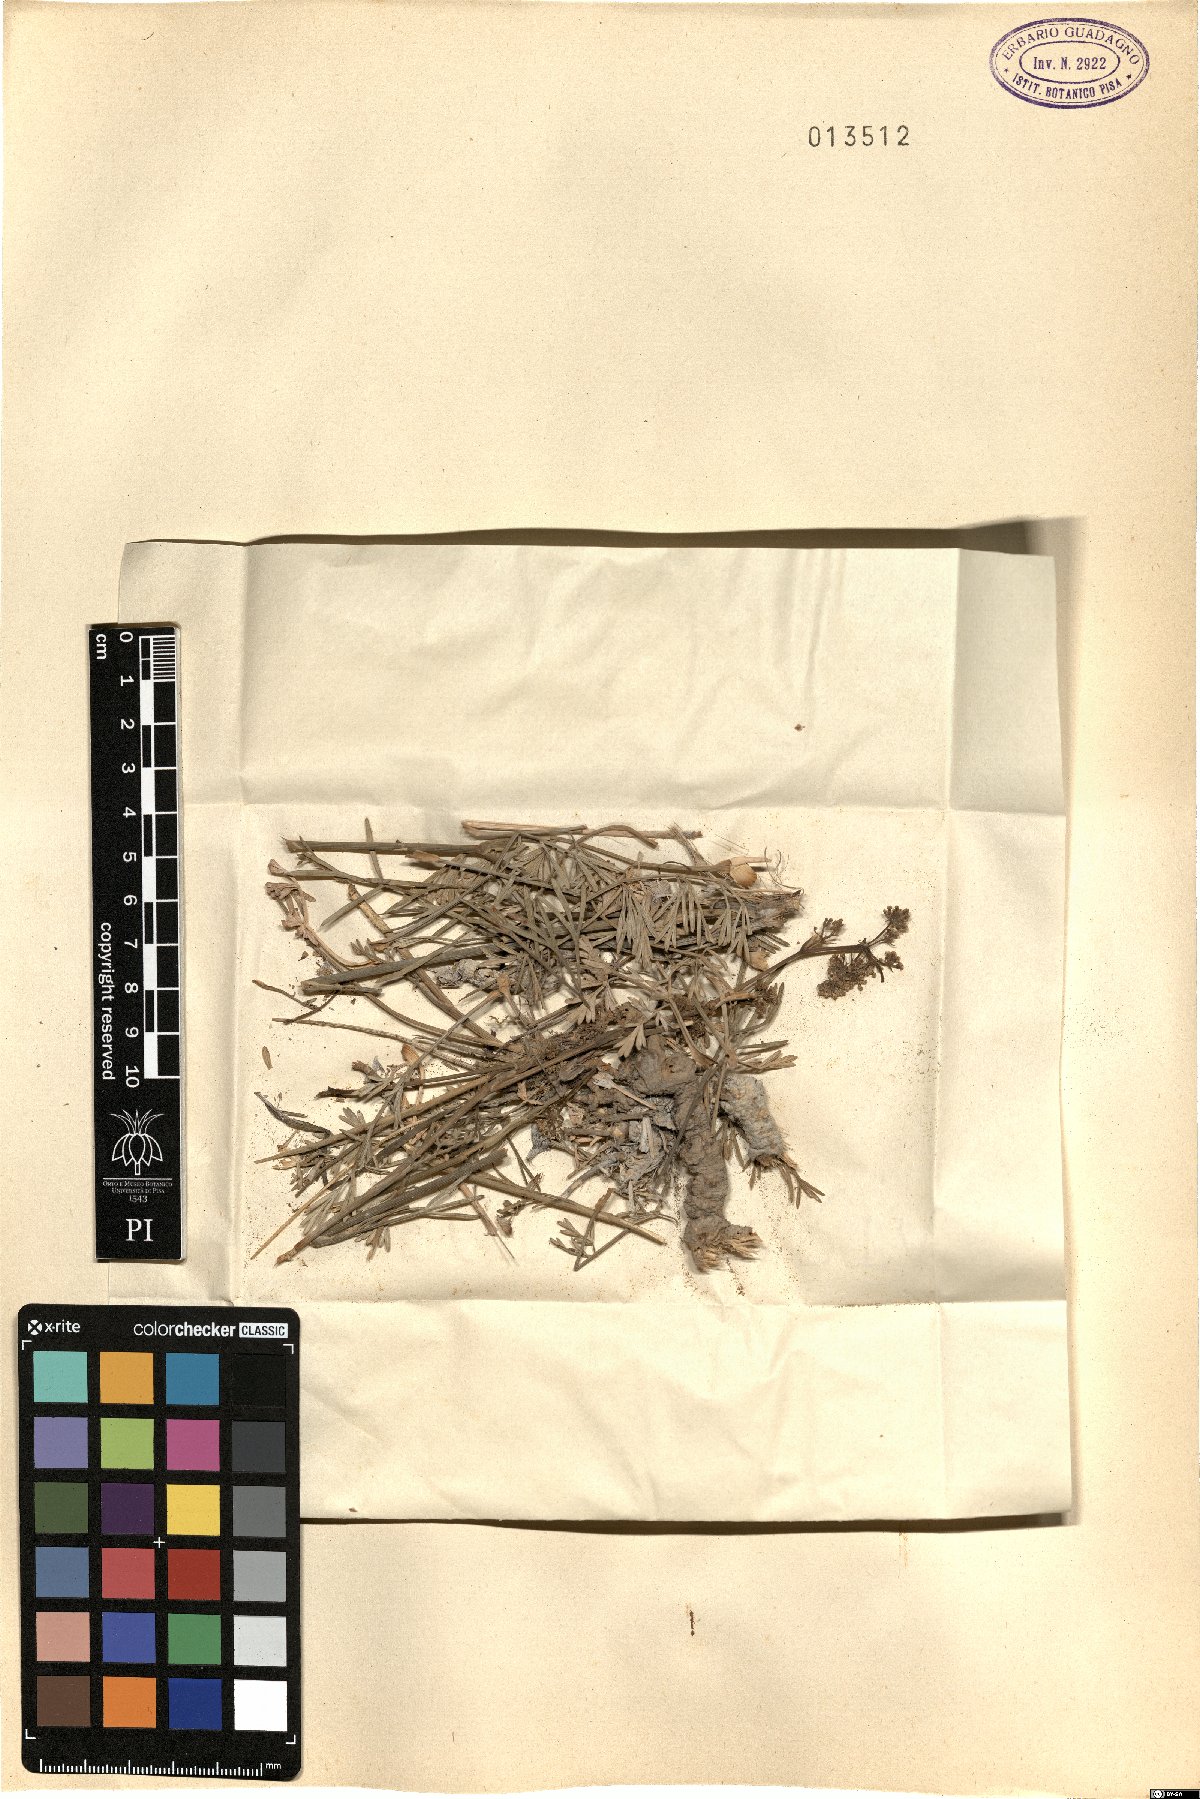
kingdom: Plantae
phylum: Tracheophyta
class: Magnoliopsida
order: Apiales
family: Apiaceae
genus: Seseli
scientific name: Seseli
